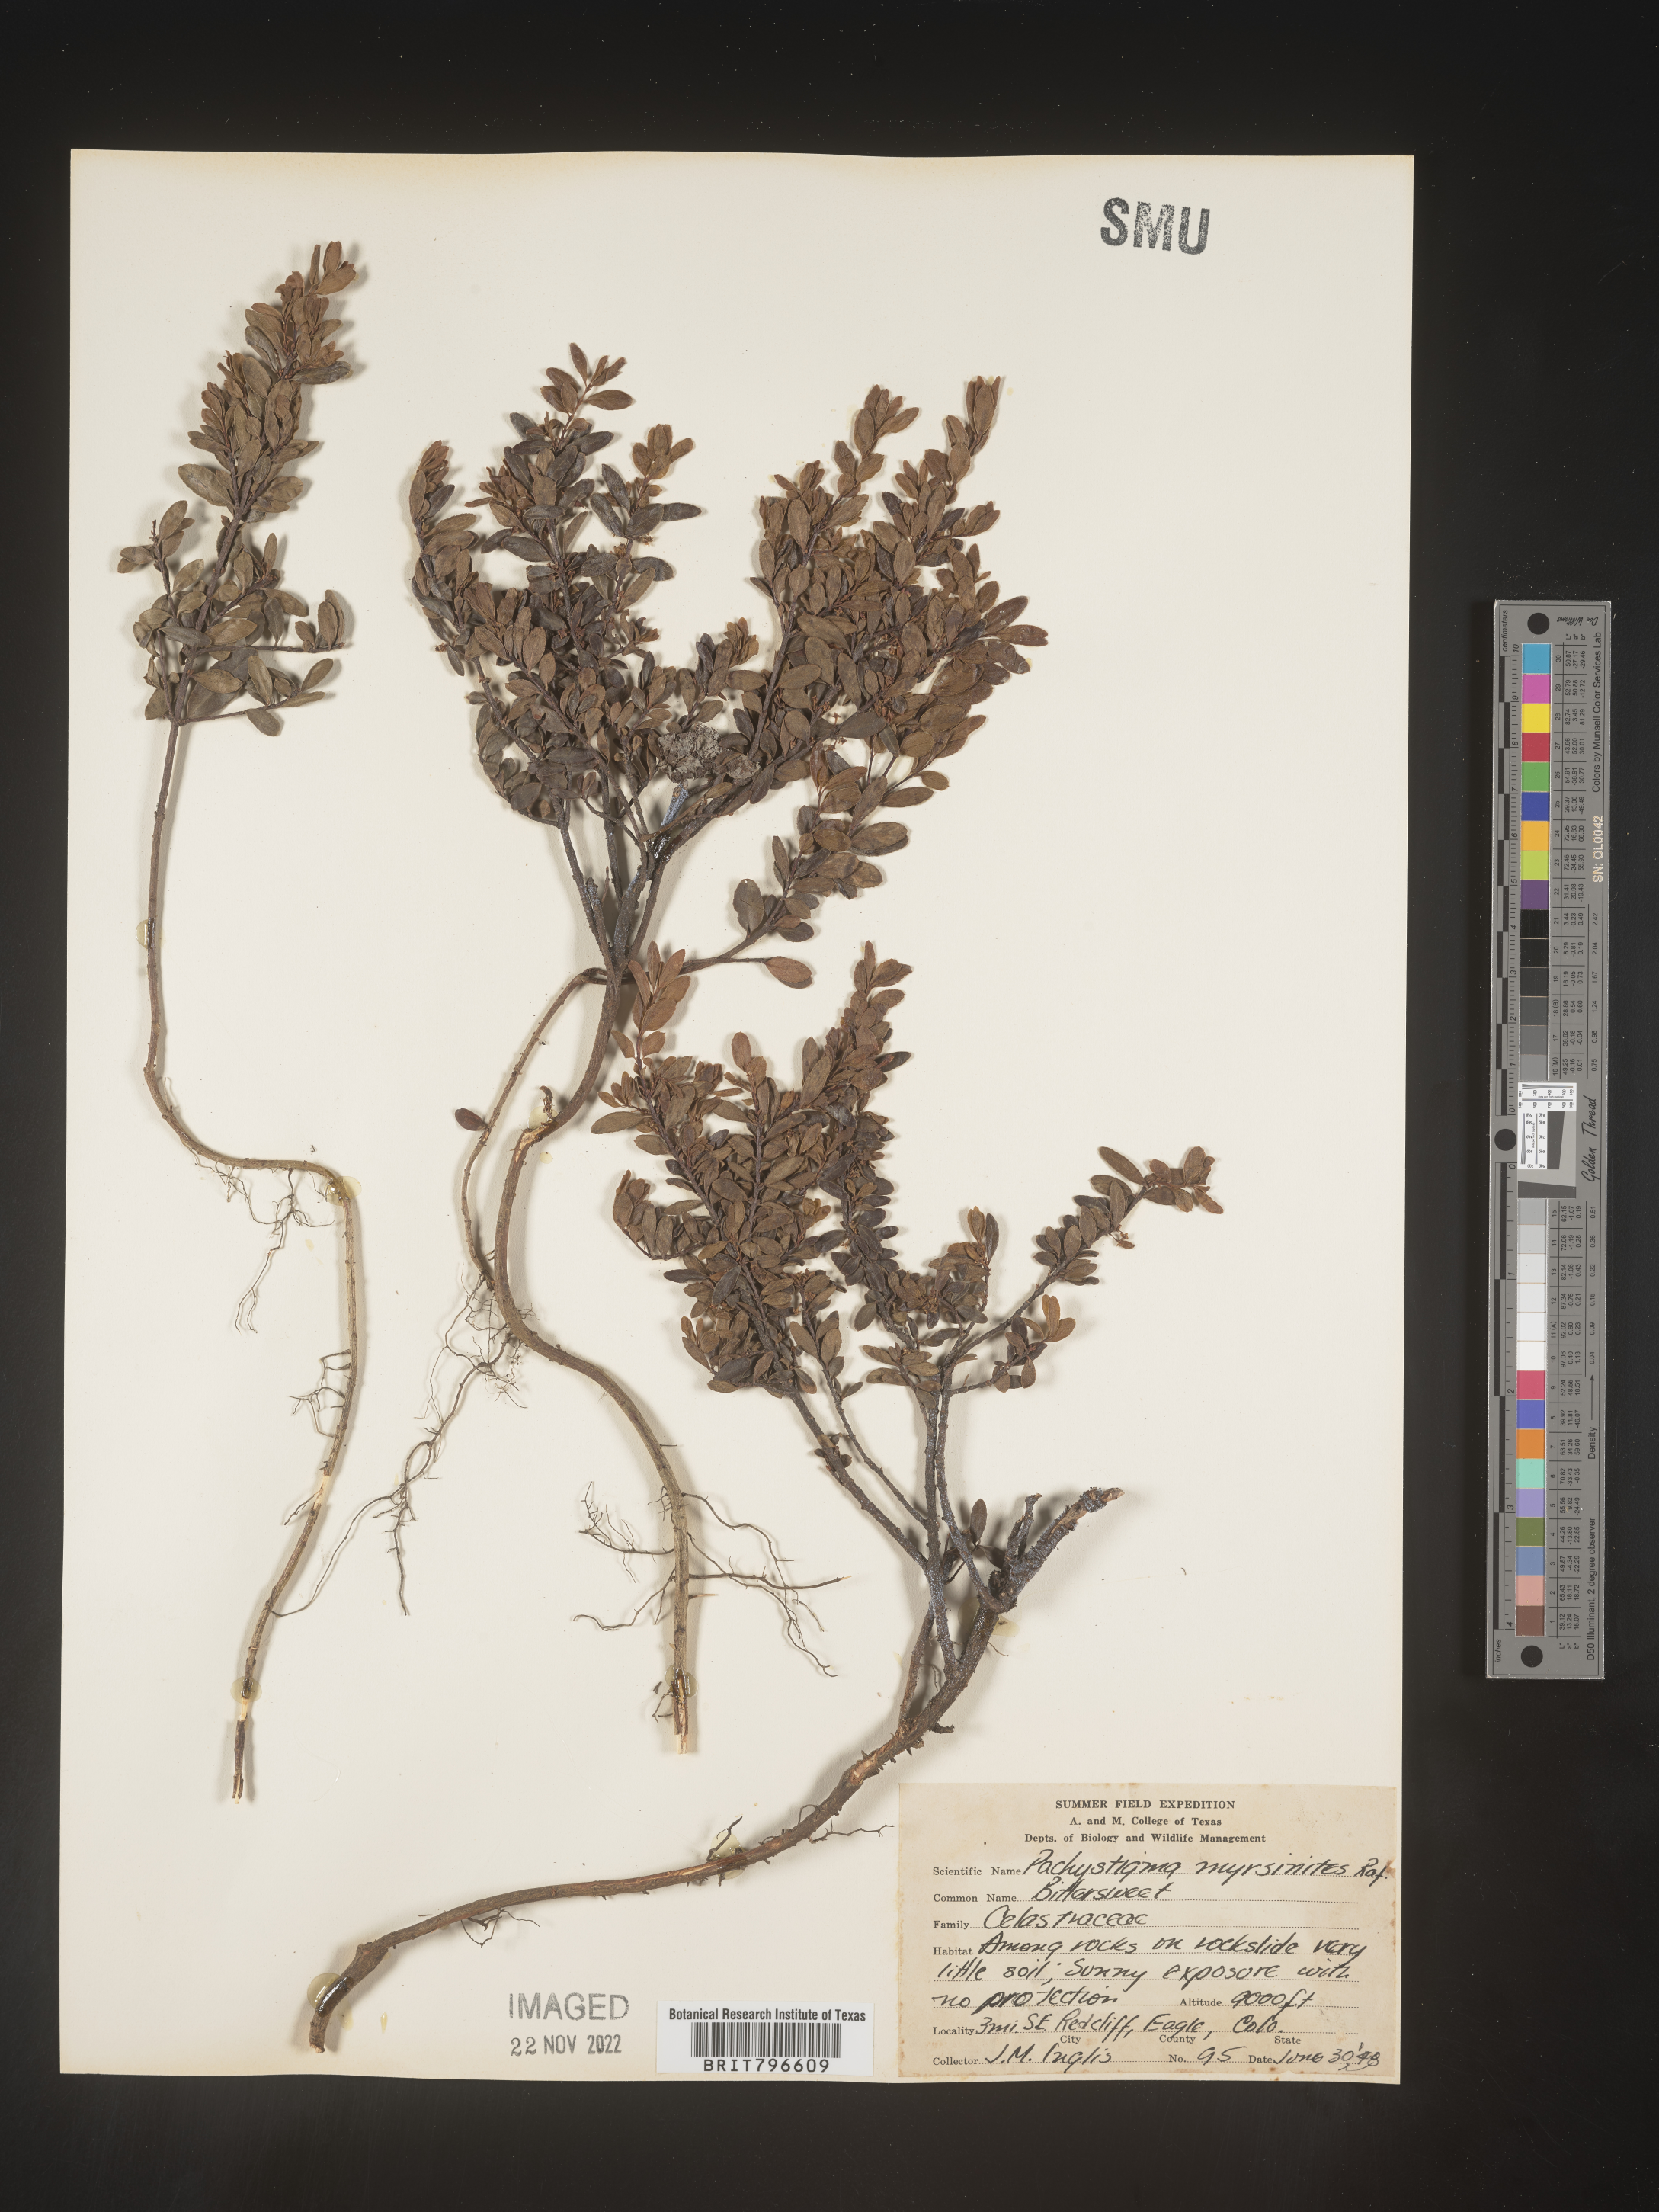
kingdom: Plantae
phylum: Tracheophyta
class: Magnoliopsida
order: Celastrales
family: Celastraceae
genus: Paxistima
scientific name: Paxistima myrsinites
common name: Mountain-lover
